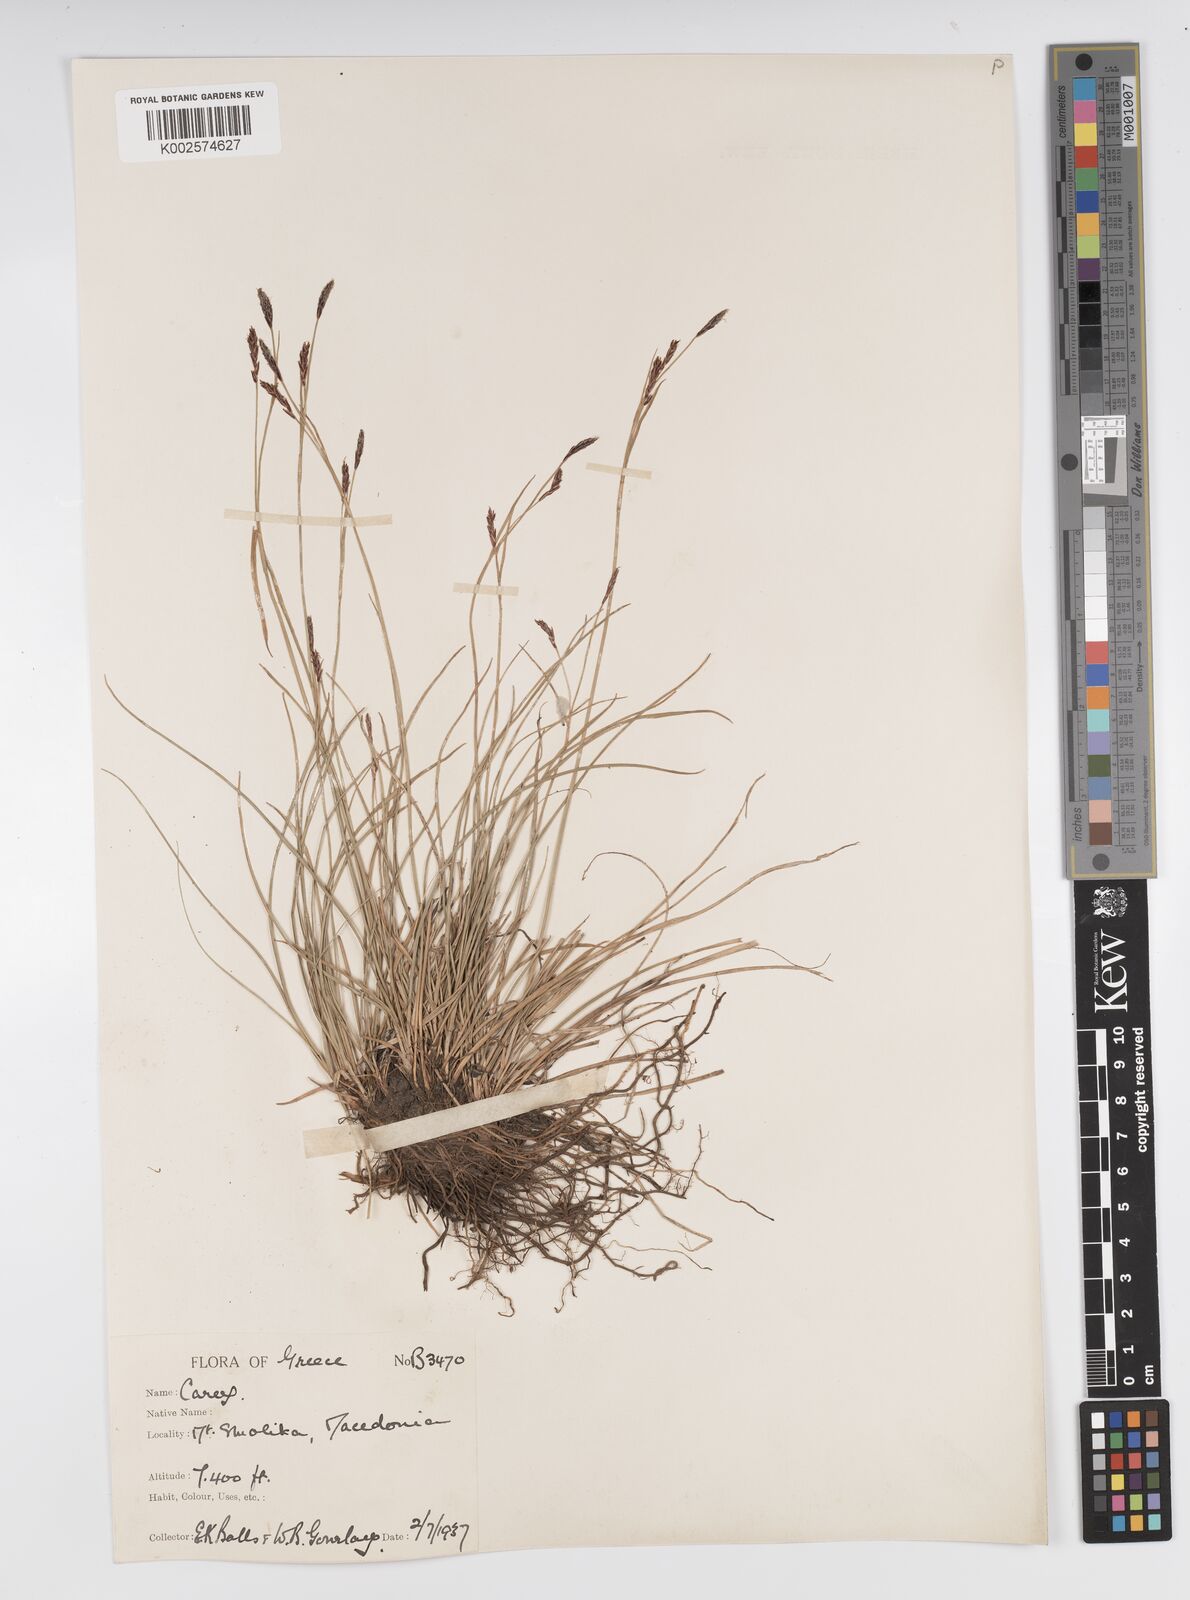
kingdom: Plantae
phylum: Tracheophyta
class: Liliopsida
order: Poales
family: Cyperaceae
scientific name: Cyperaceae
